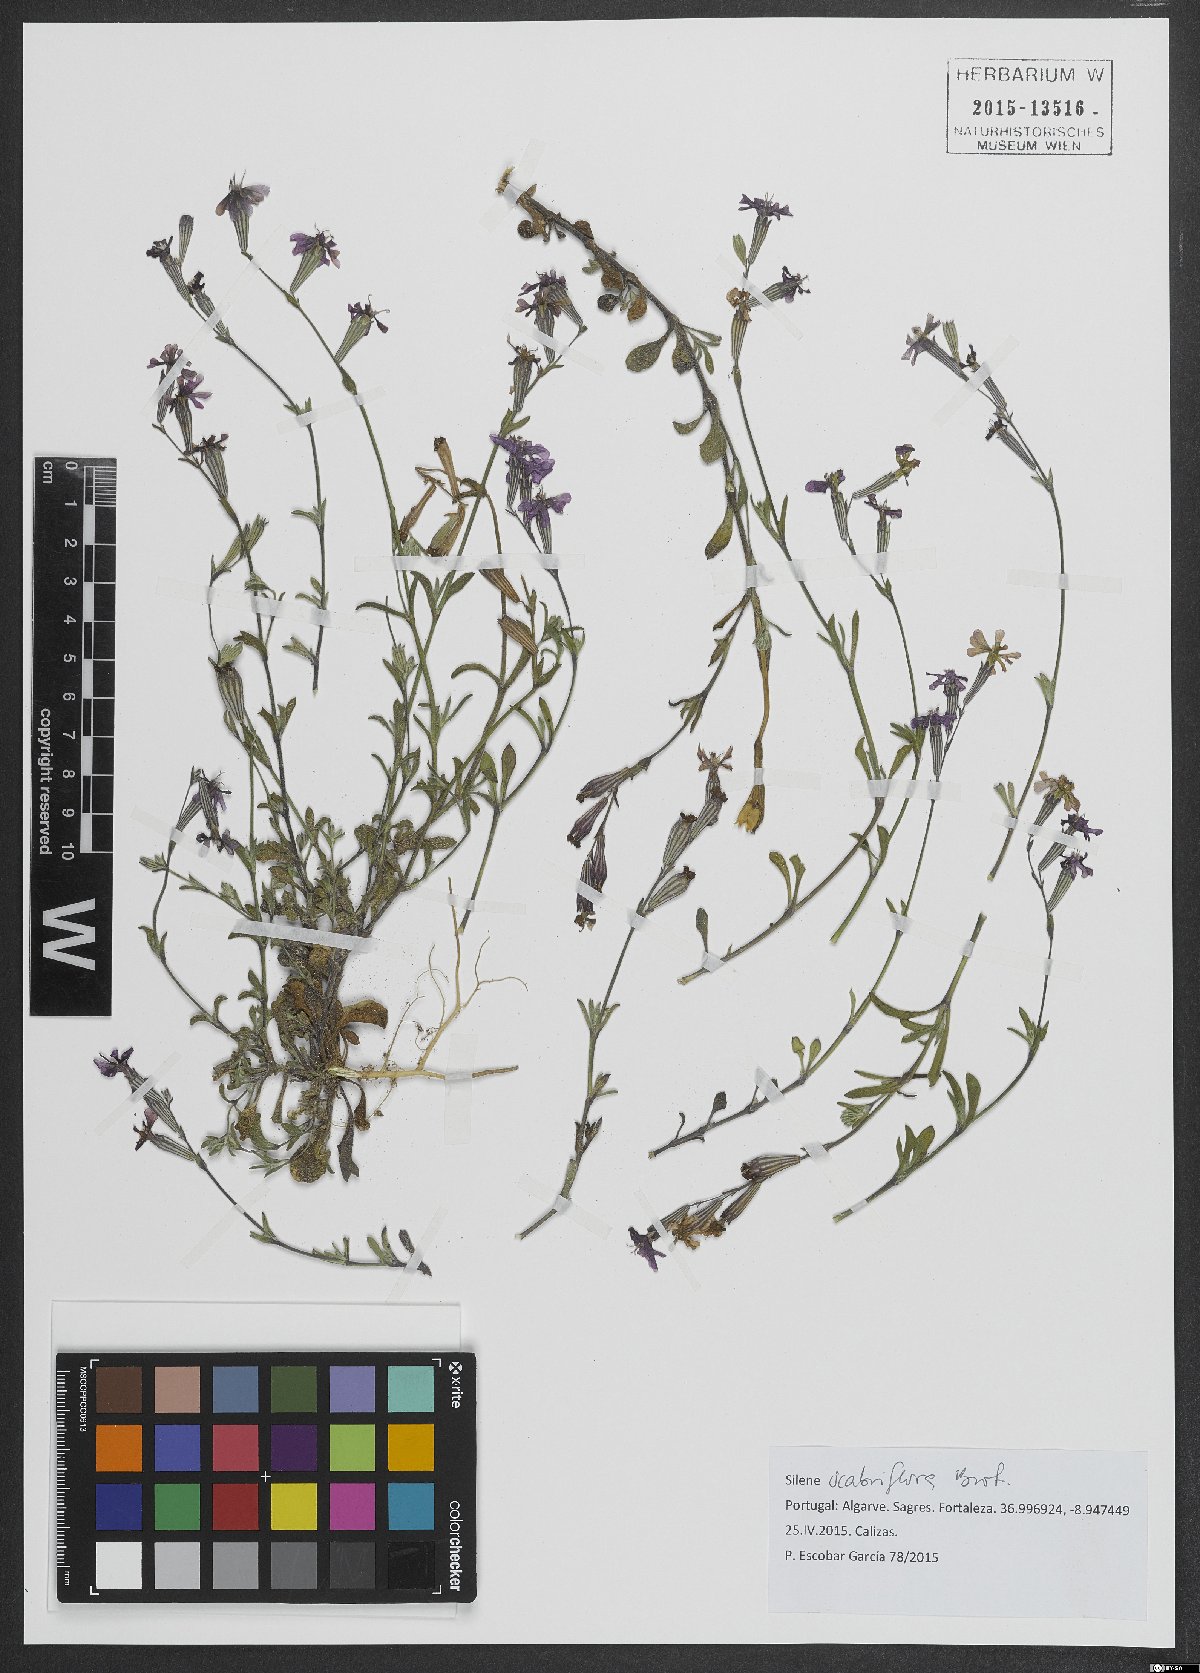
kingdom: Plantae
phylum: Tracheophyta
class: Magnoliopsida
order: Caryophyllales
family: Caryophyllaceae
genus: Silene
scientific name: Silene scabriflora
